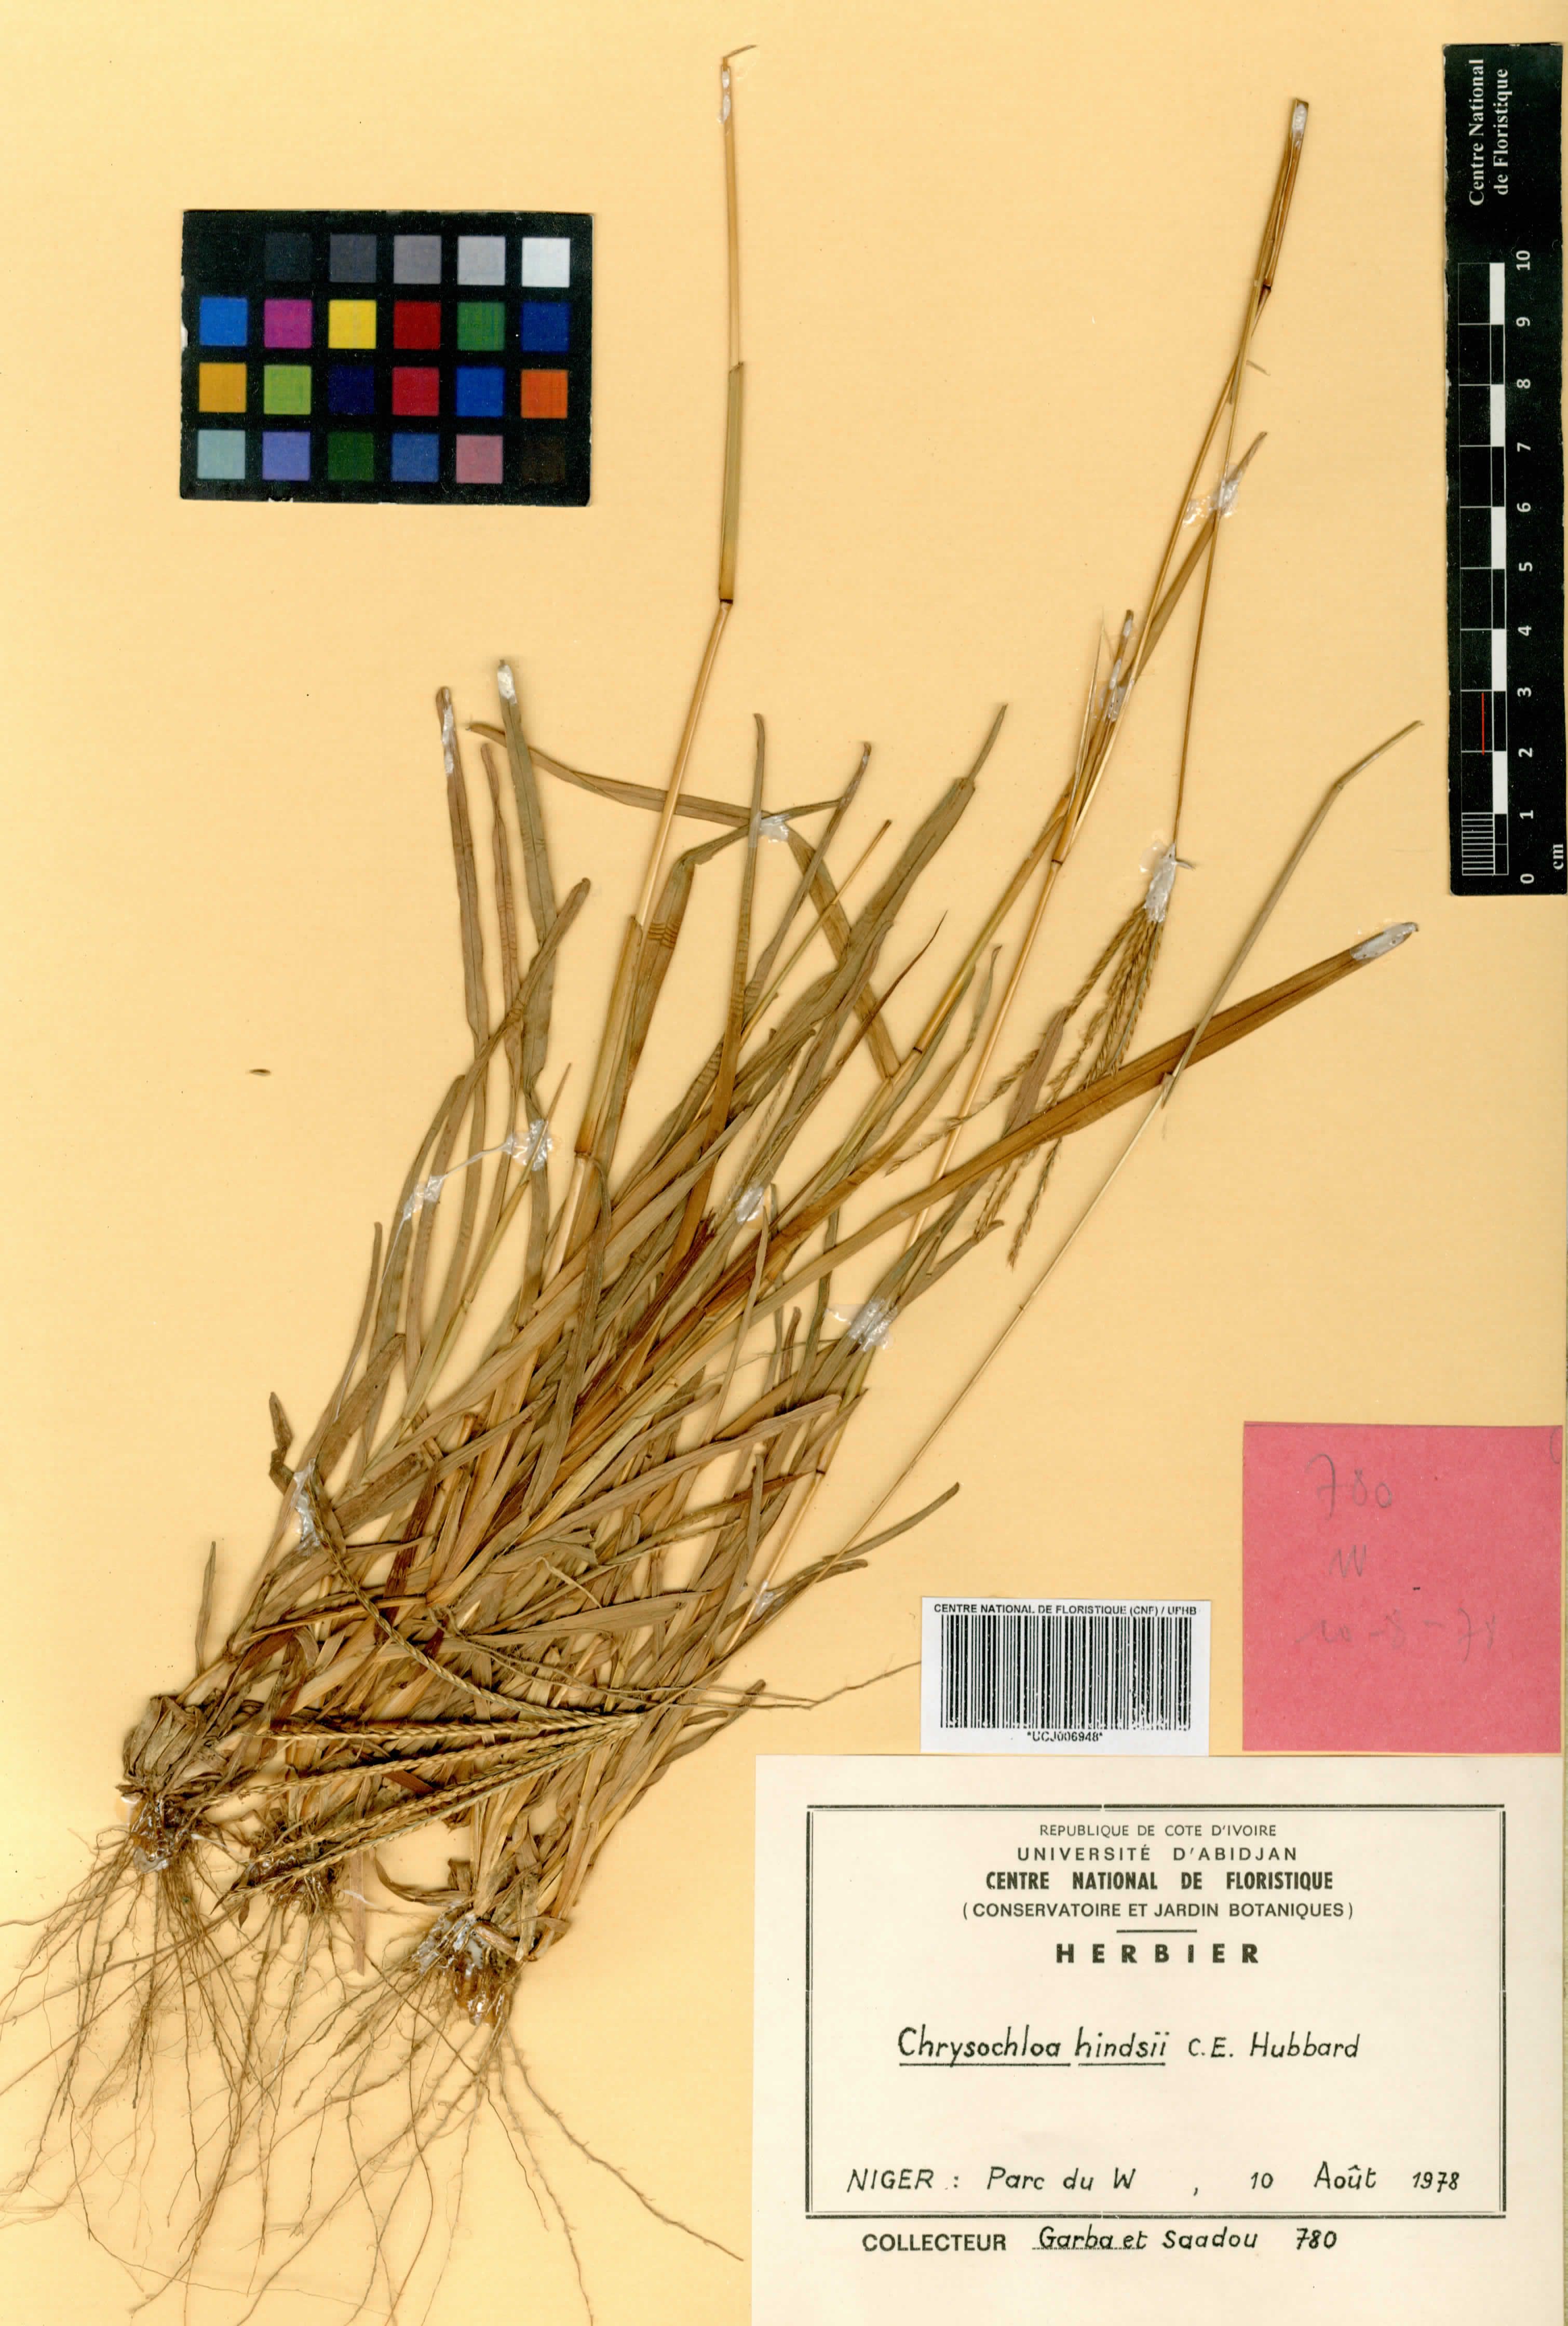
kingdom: Plantae
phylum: Tracheophyta
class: Liliopsida
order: Poales
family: Poaceae
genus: Chrysochloa
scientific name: Chrysochloa hindsii
